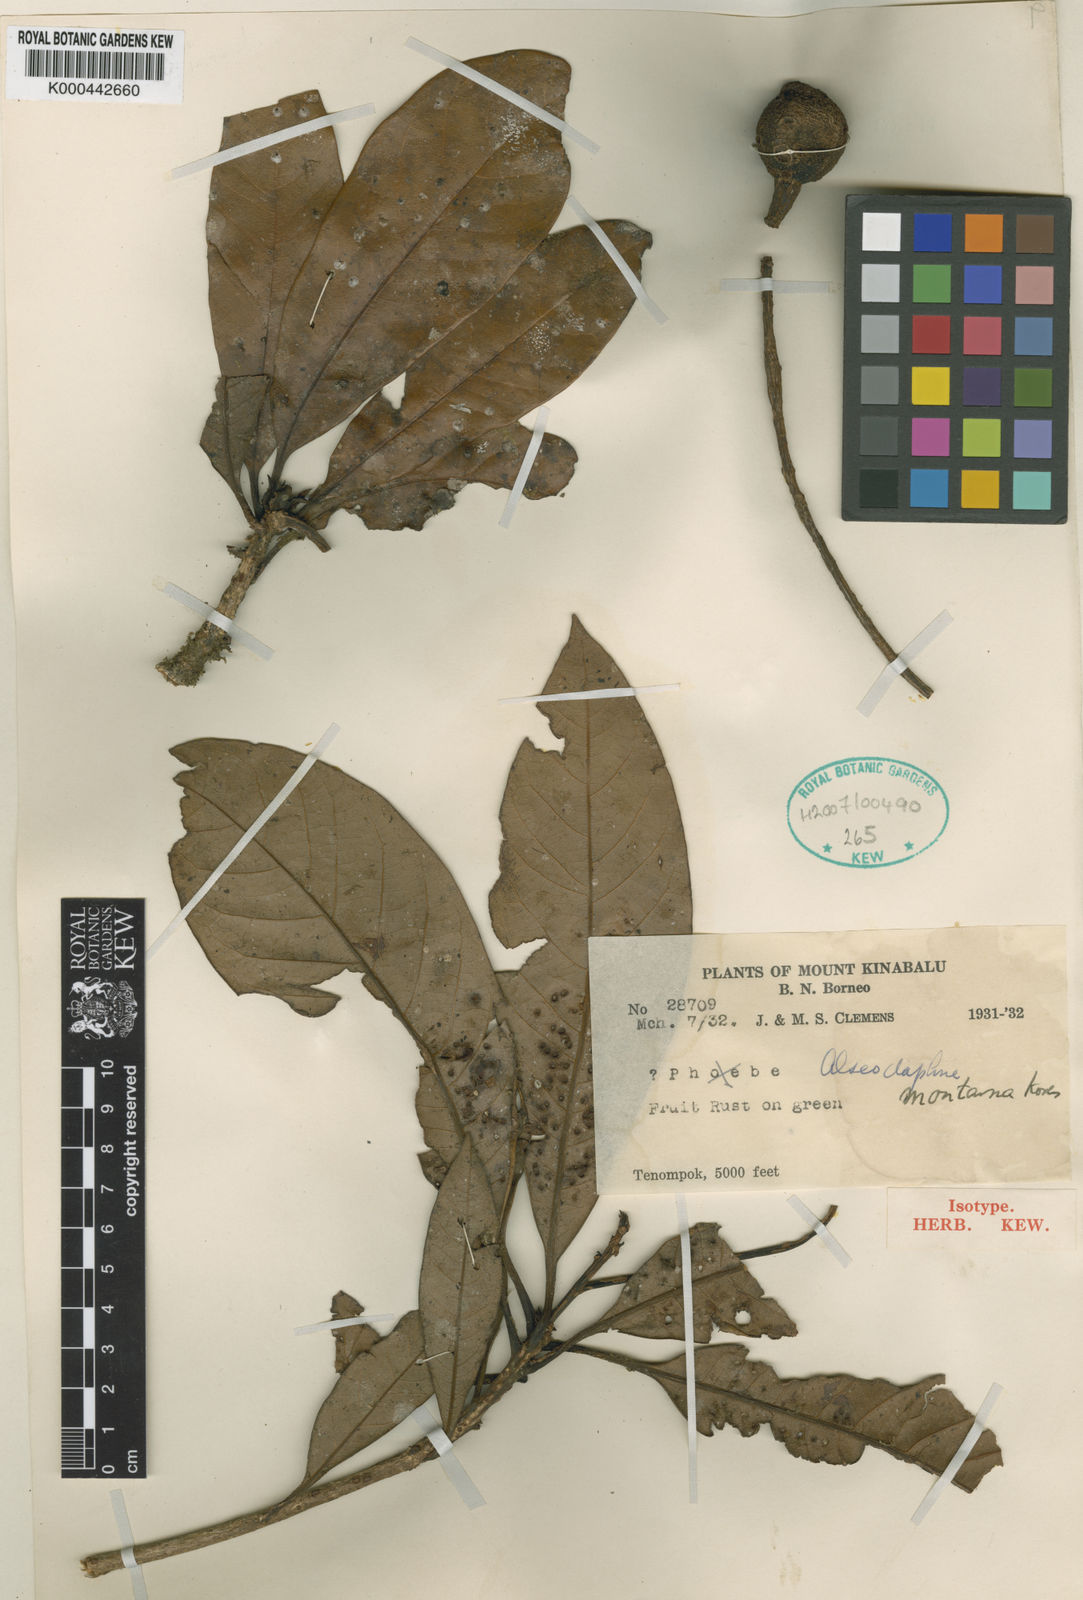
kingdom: Plantae
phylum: Tracheophyta
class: Magnoliopsida
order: Laurales
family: Lauraceae
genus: Alseodaphne
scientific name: Alseodaphne montana
